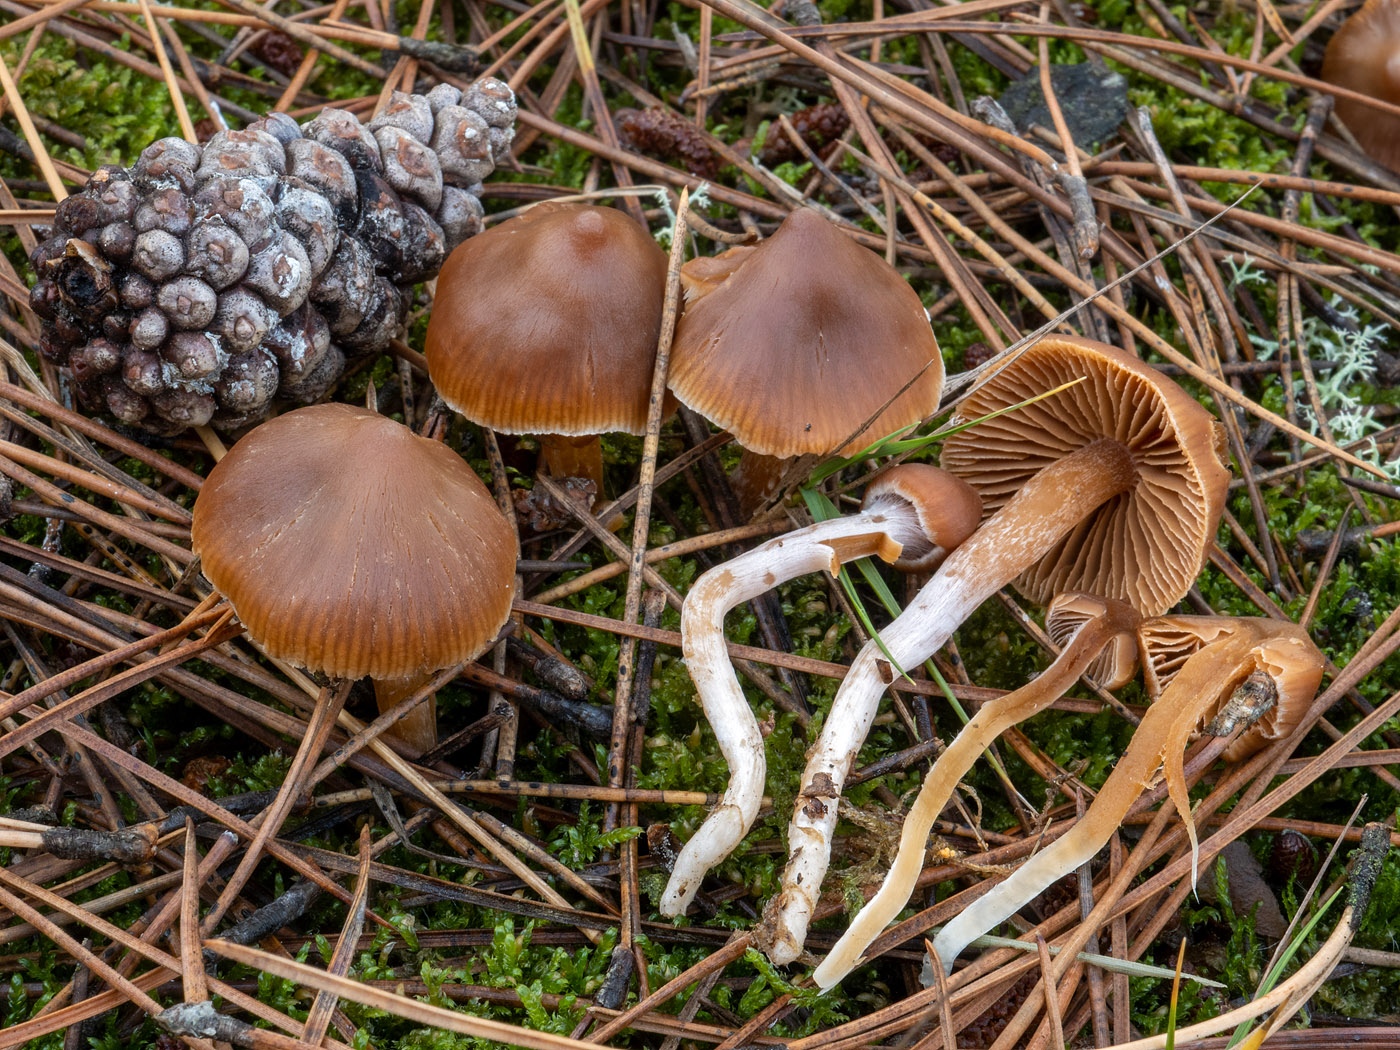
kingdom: Fungi
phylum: Basidiomycota
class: Agaricomycetes
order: Agaricales
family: Cortinariaceae
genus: Cortinarius
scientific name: Cortinarius obtusorum
